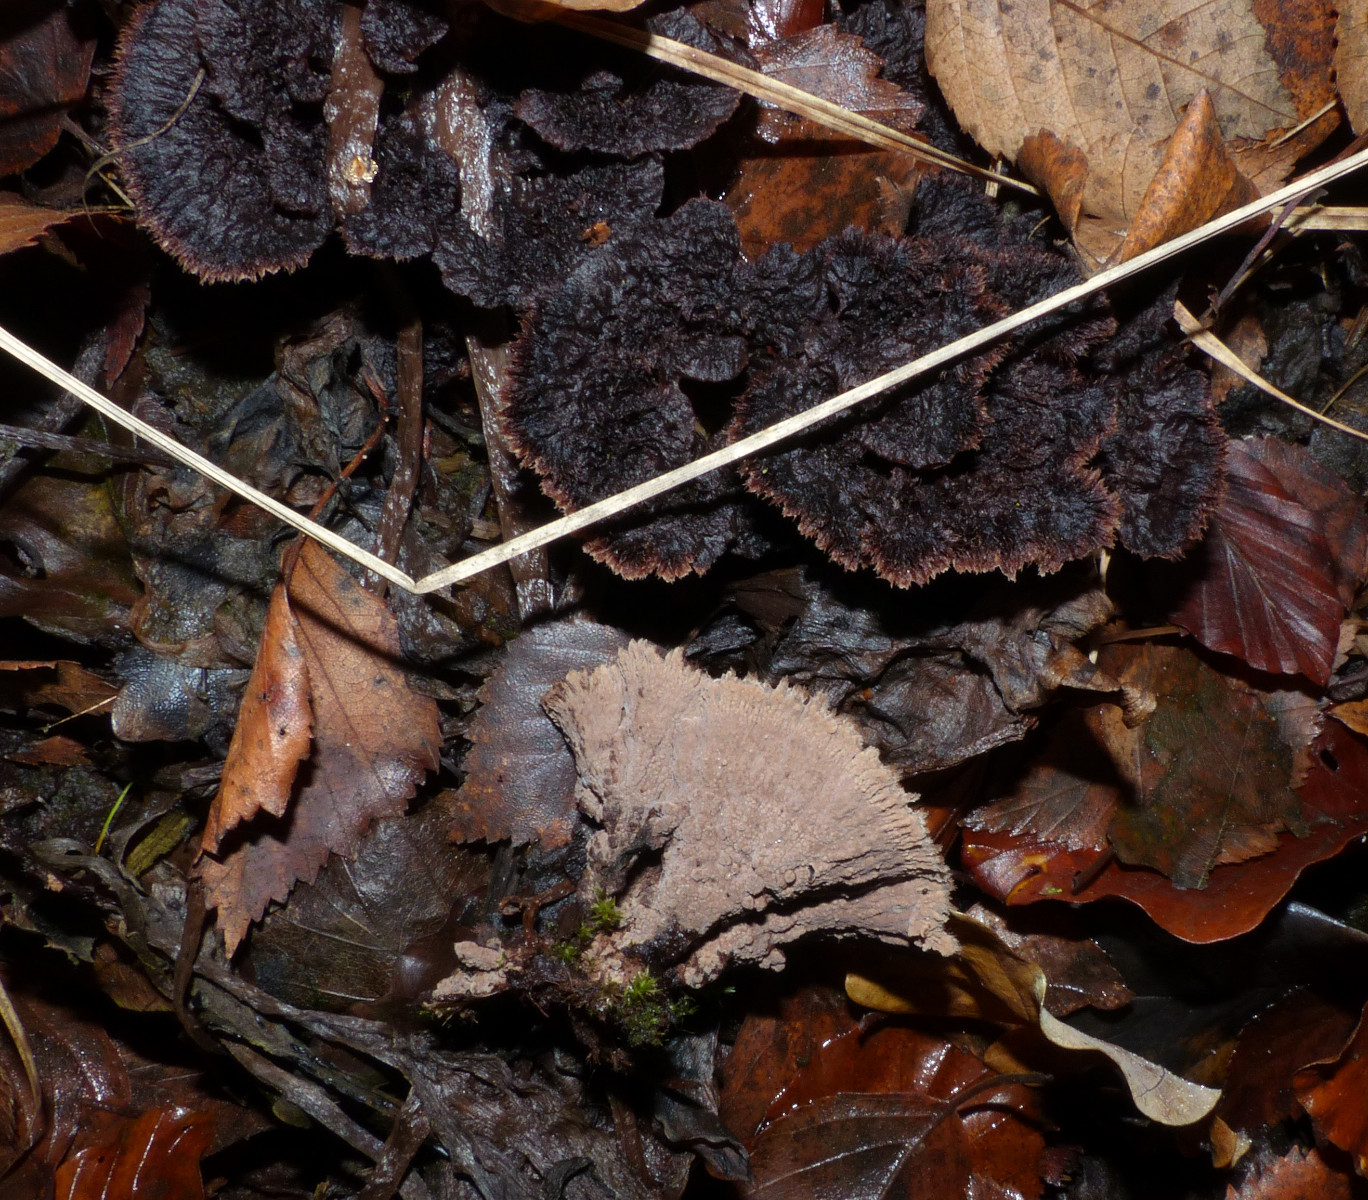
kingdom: Fungi
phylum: Basidiomycota
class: Agaricomycetes
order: Thelephorales
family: Thelephoraceae
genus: Thelephora
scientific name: Thelephora terrestris
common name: fliget frynsesvamp
